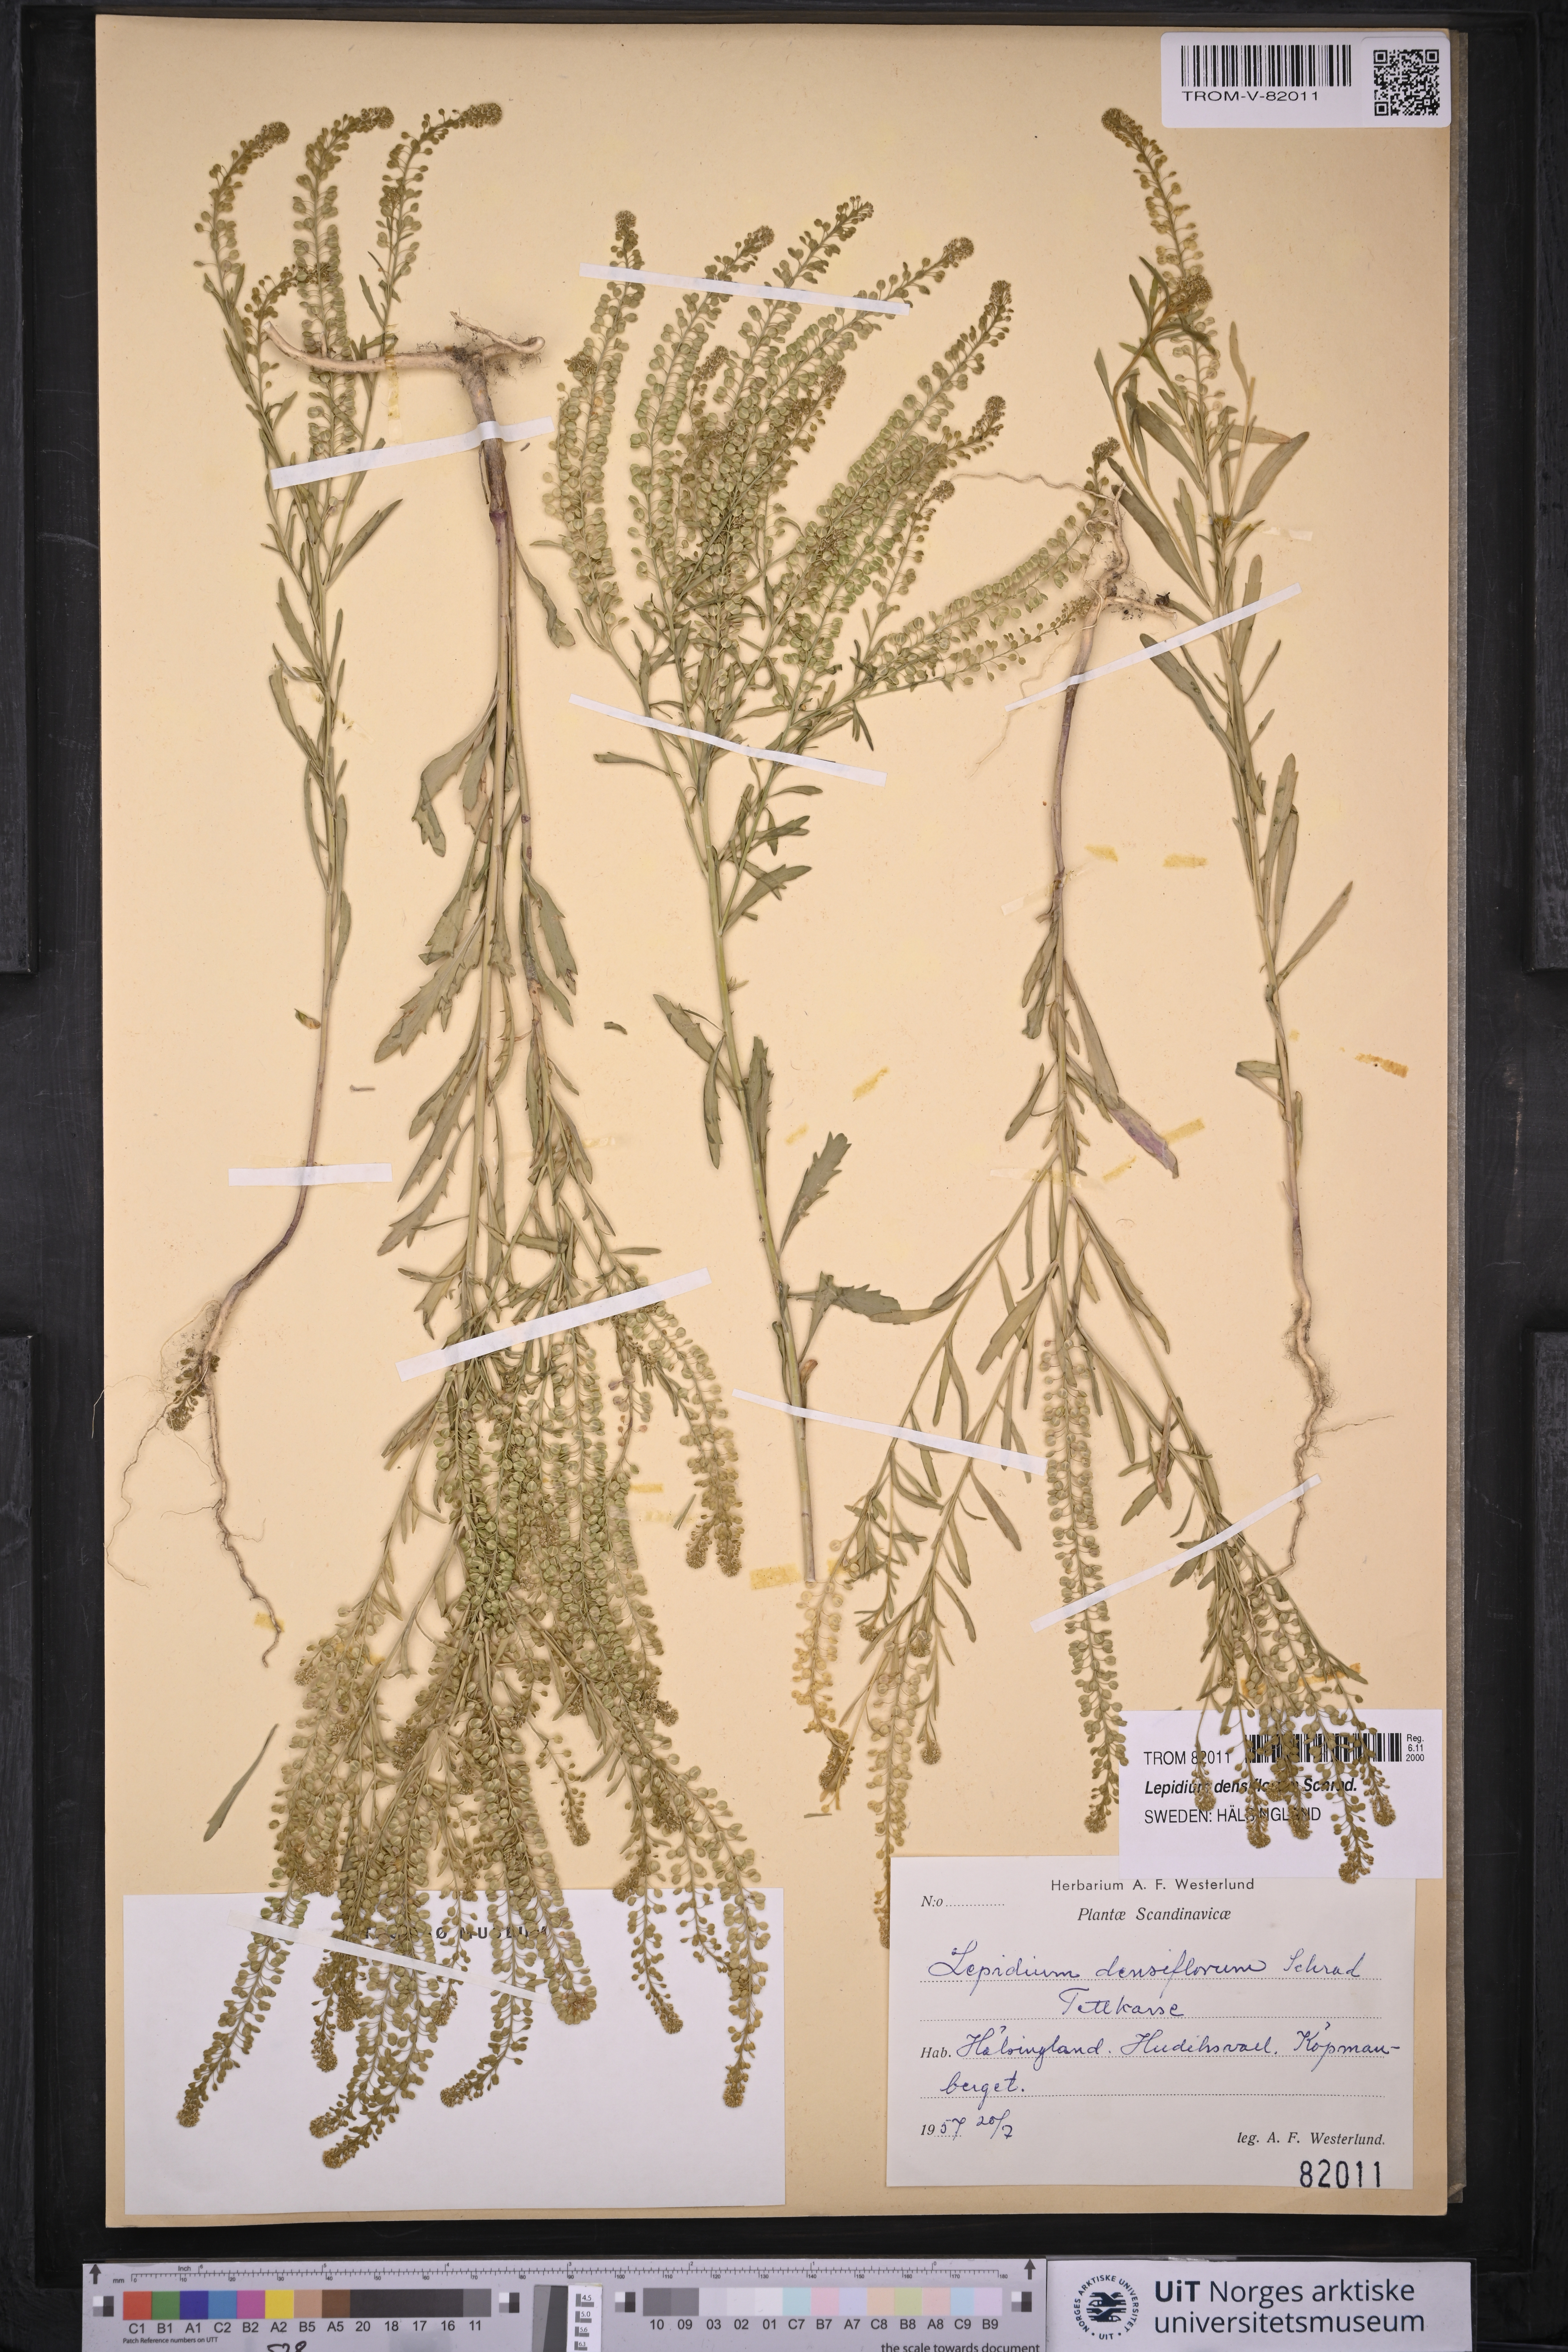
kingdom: Plantae
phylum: Tracheophyta
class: Magnoliopsida
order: Brassicales
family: Brassicaceae
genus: Lepidium
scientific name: Lepidium densiflorum
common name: Miner's pepperwort
